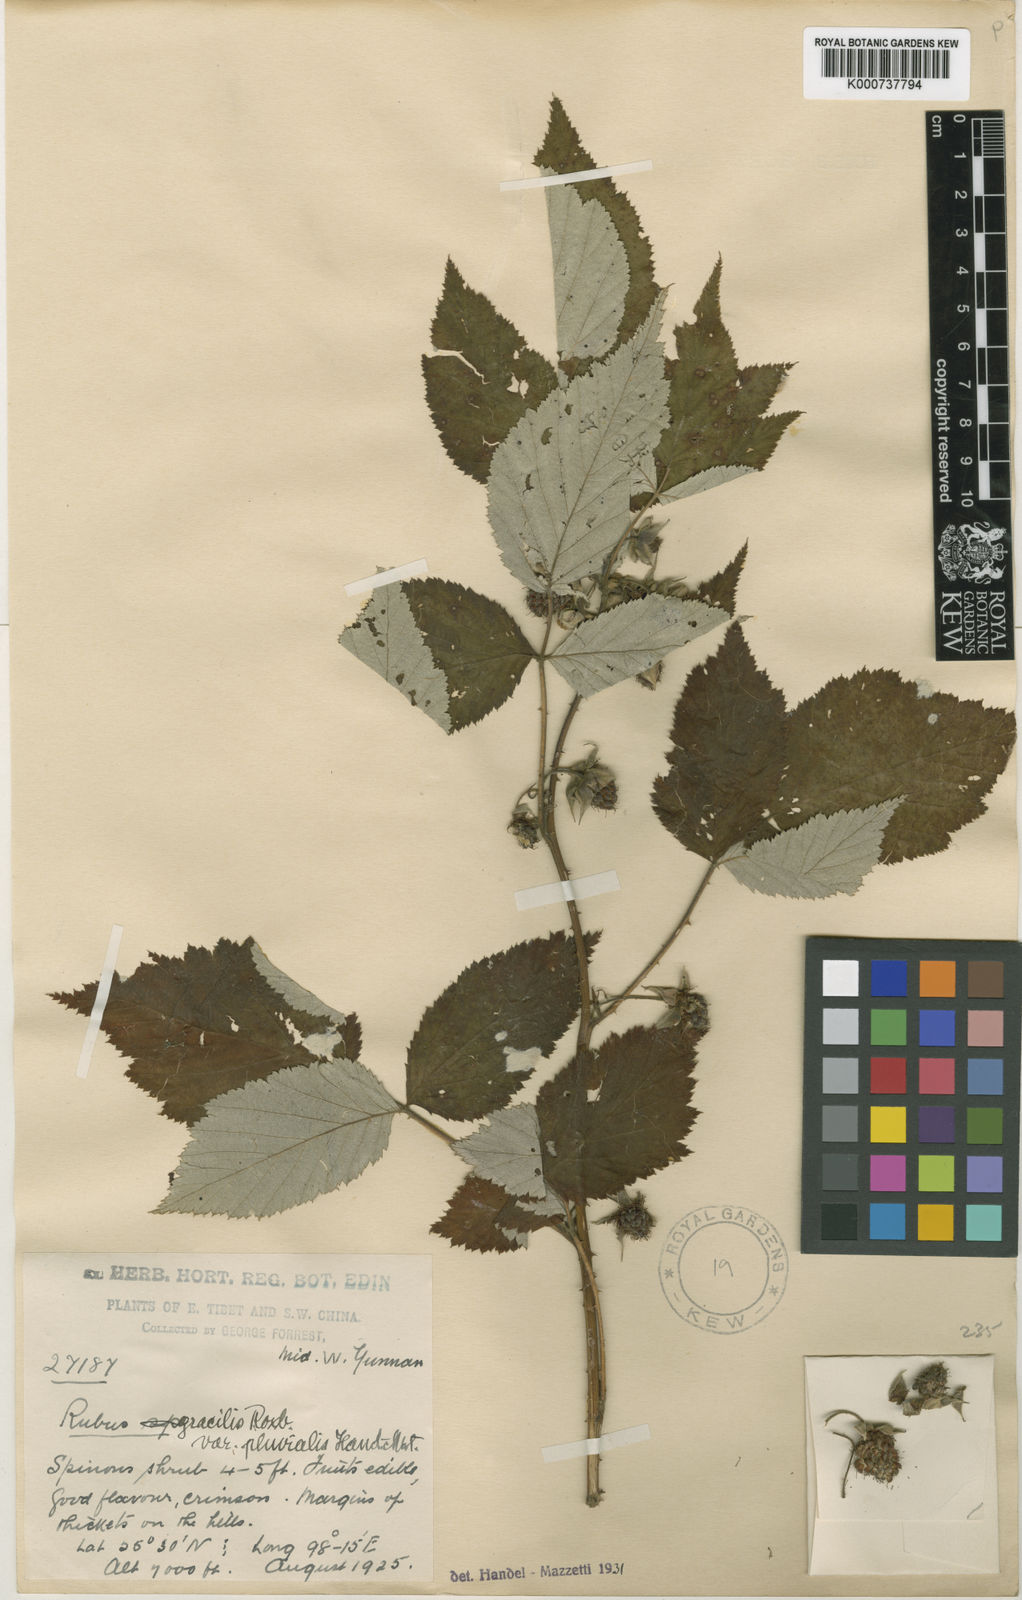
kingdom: Plantae
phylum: Tracheophyta
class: Magnoliopsida
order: Rosales
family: Rosaceae
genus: Rubus
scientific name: Rubus
